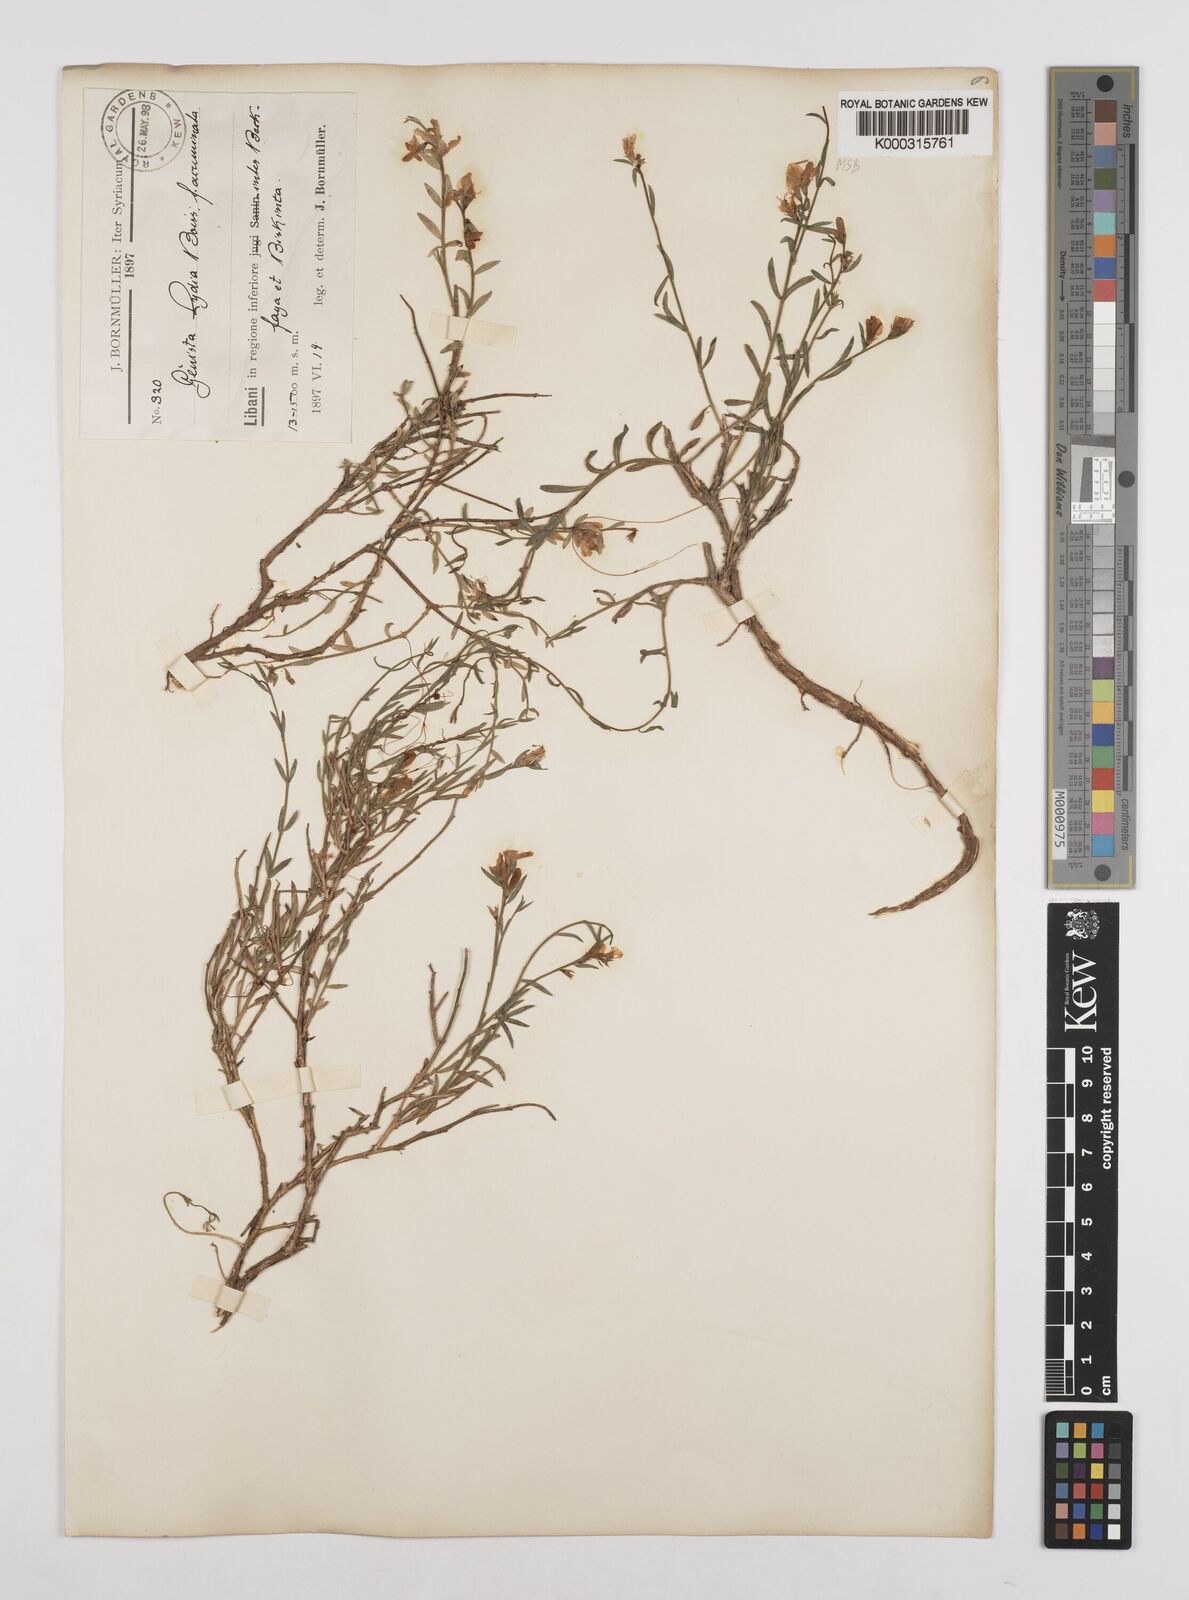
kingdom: Plantae
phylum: Tracheophyta
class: Magnoliopsida
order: Fabales
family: Fabaceae
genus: Genista
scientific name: Genista lydia
